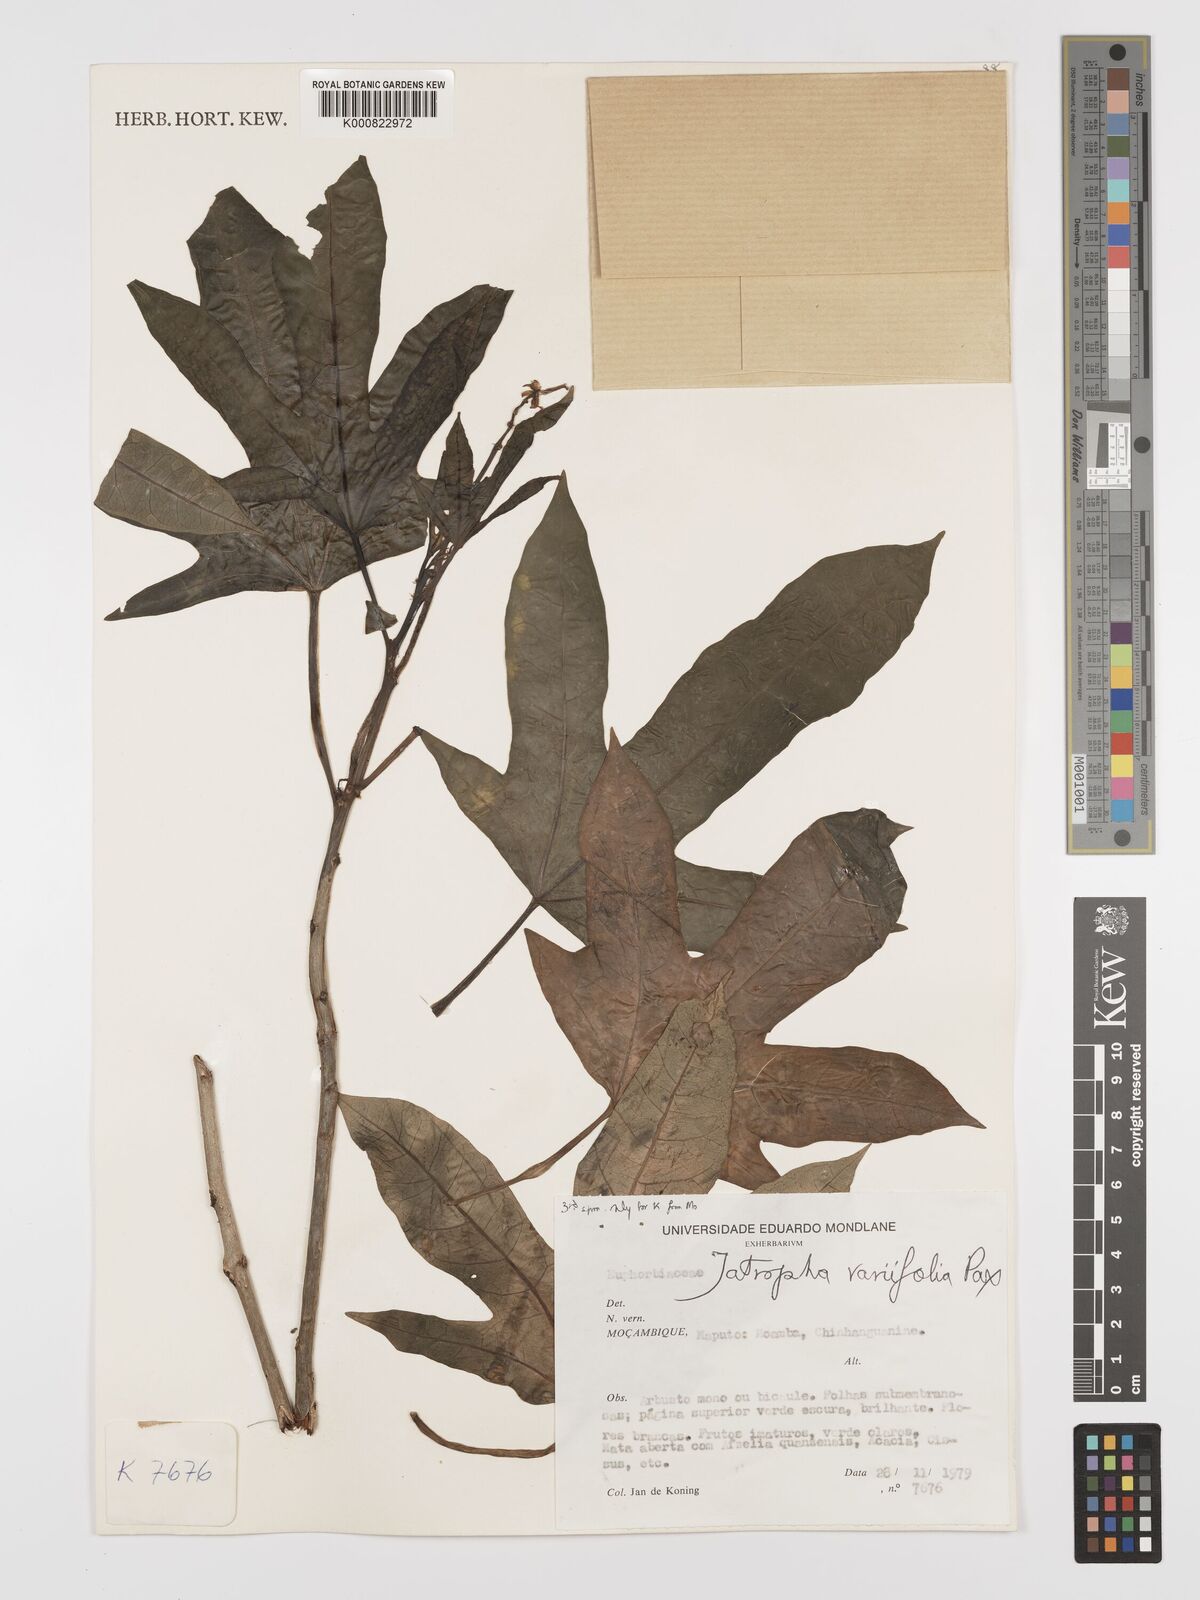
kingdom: Plantae
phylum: Tracheophyta
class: Magnoliopsida
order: Malpighiales
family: Euphorbiaceae
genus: Jatropha
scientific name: Jatropha variifolia
